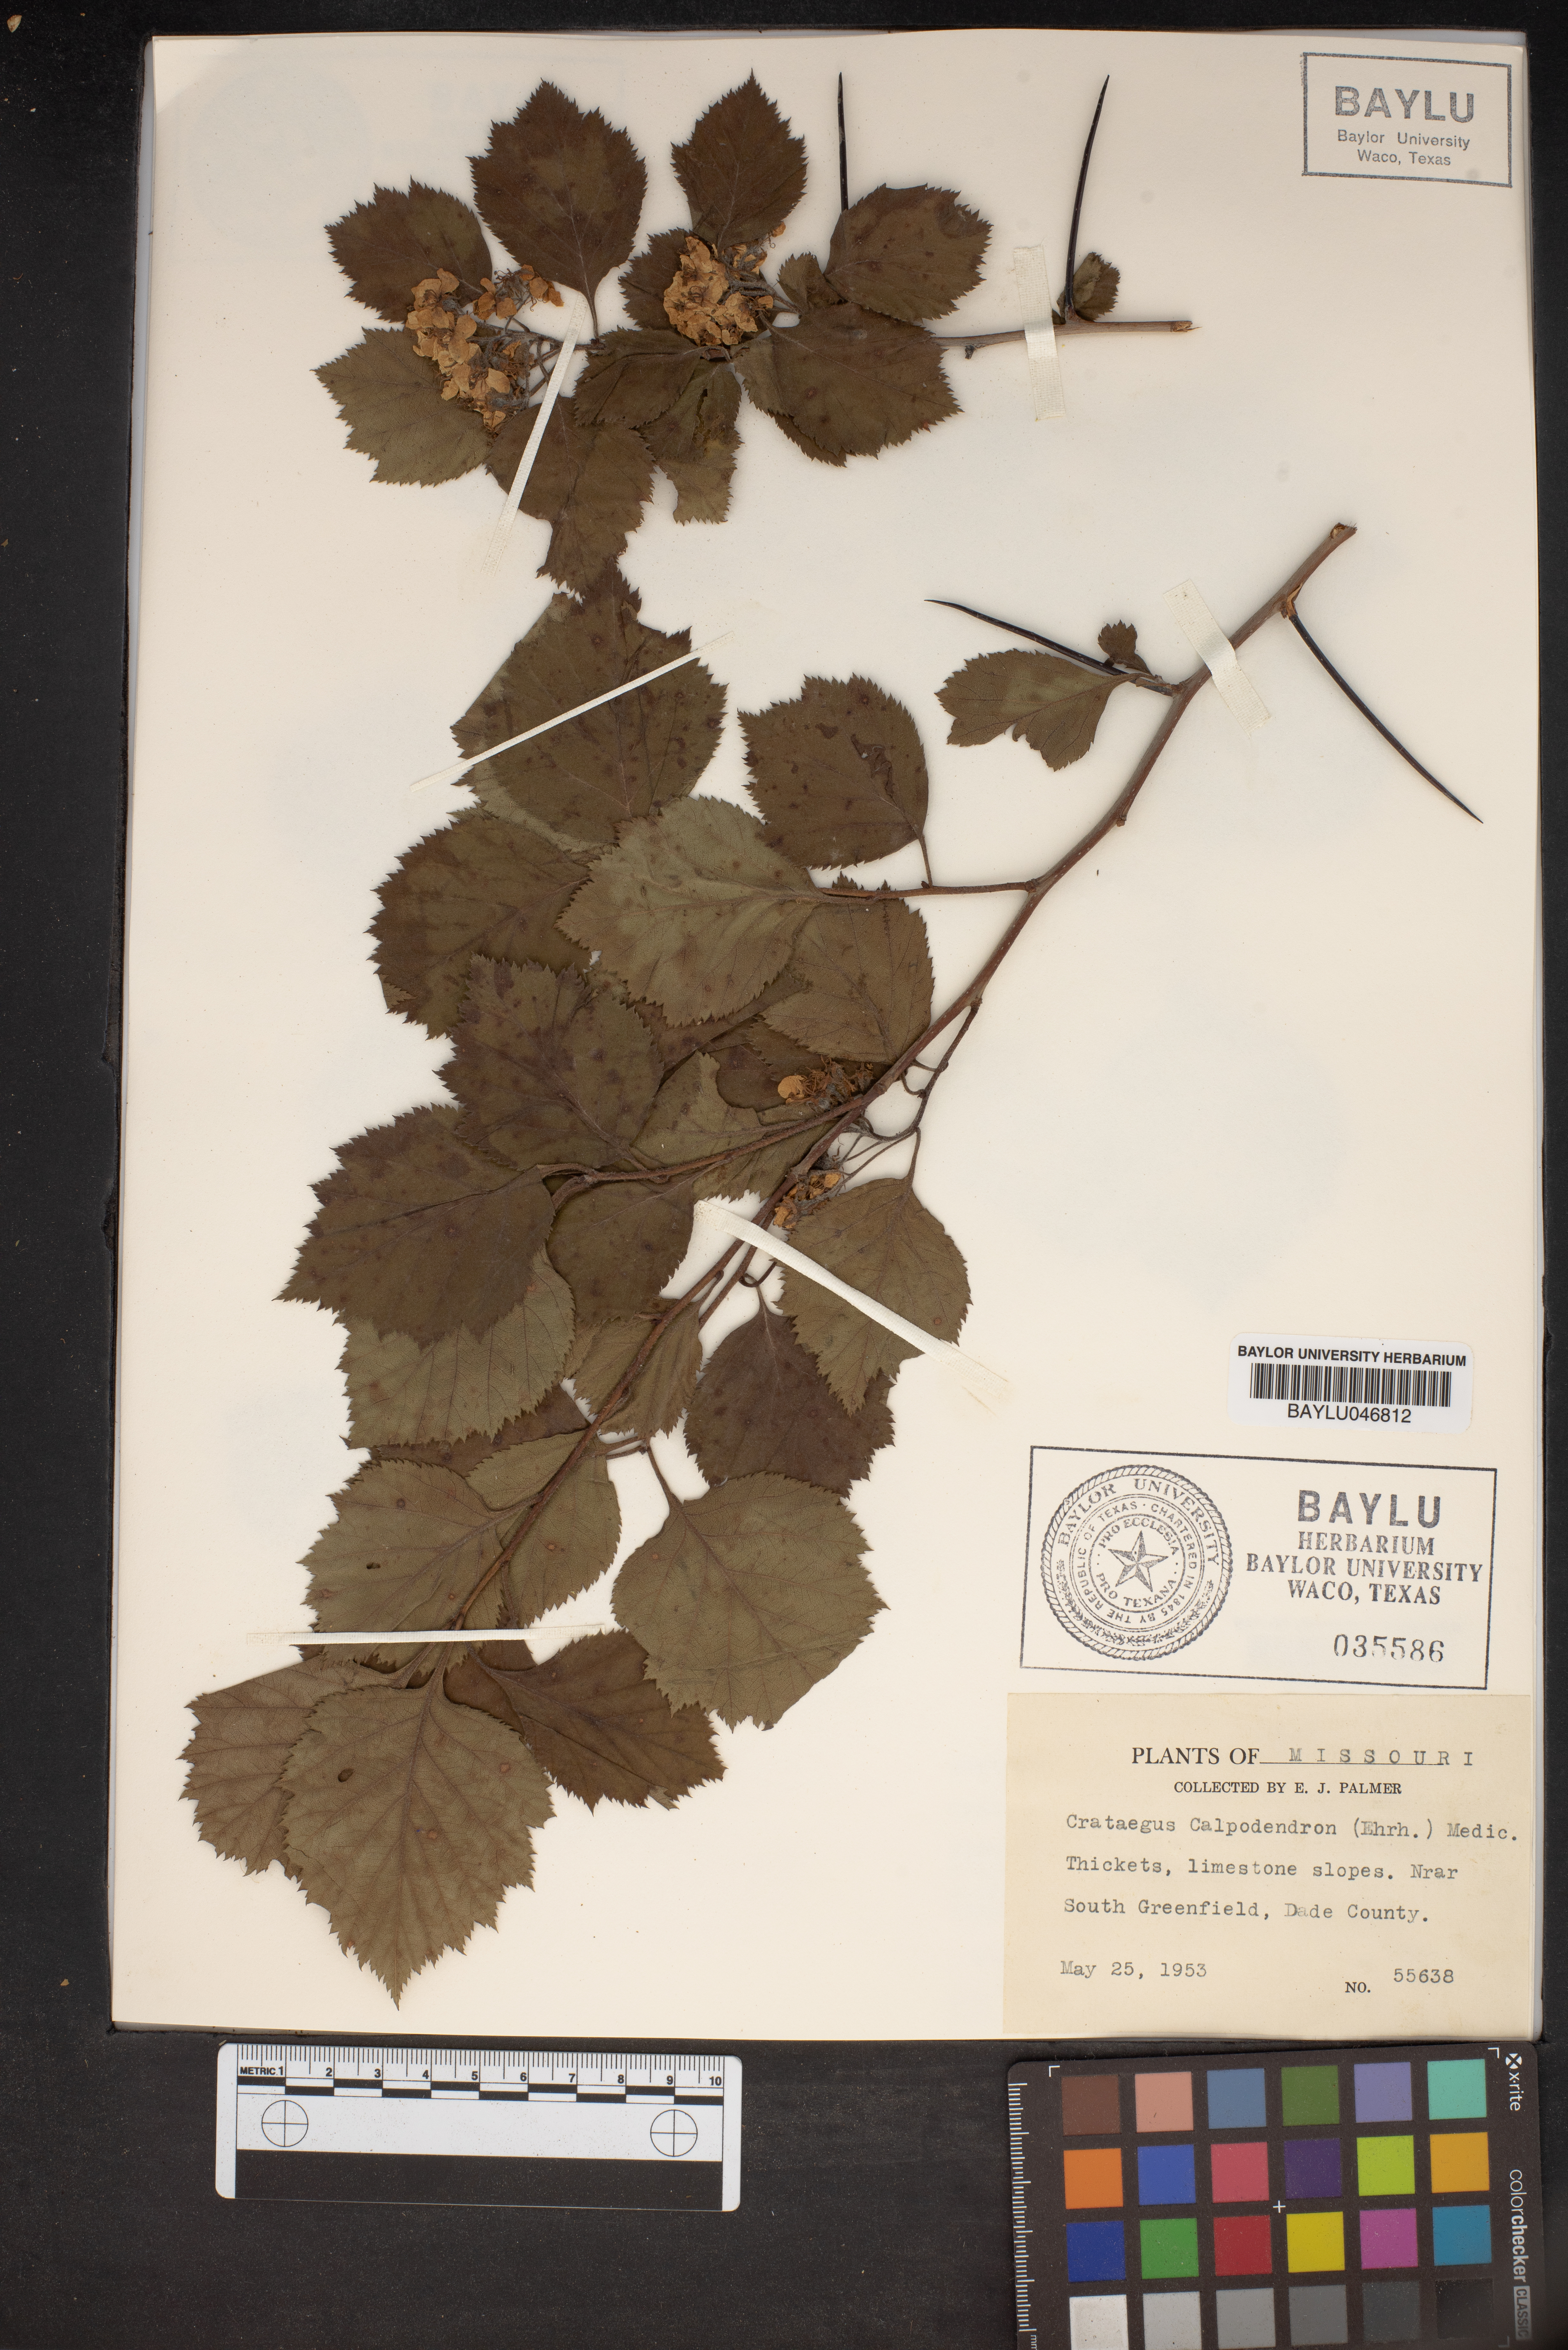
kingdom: Plantae
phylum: Tracheophyta
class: Magnoliopsida
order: Rosales
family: Rosaceae
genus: Crataegus
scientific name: Crataegus calpodendron
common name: Pear hawthorn
